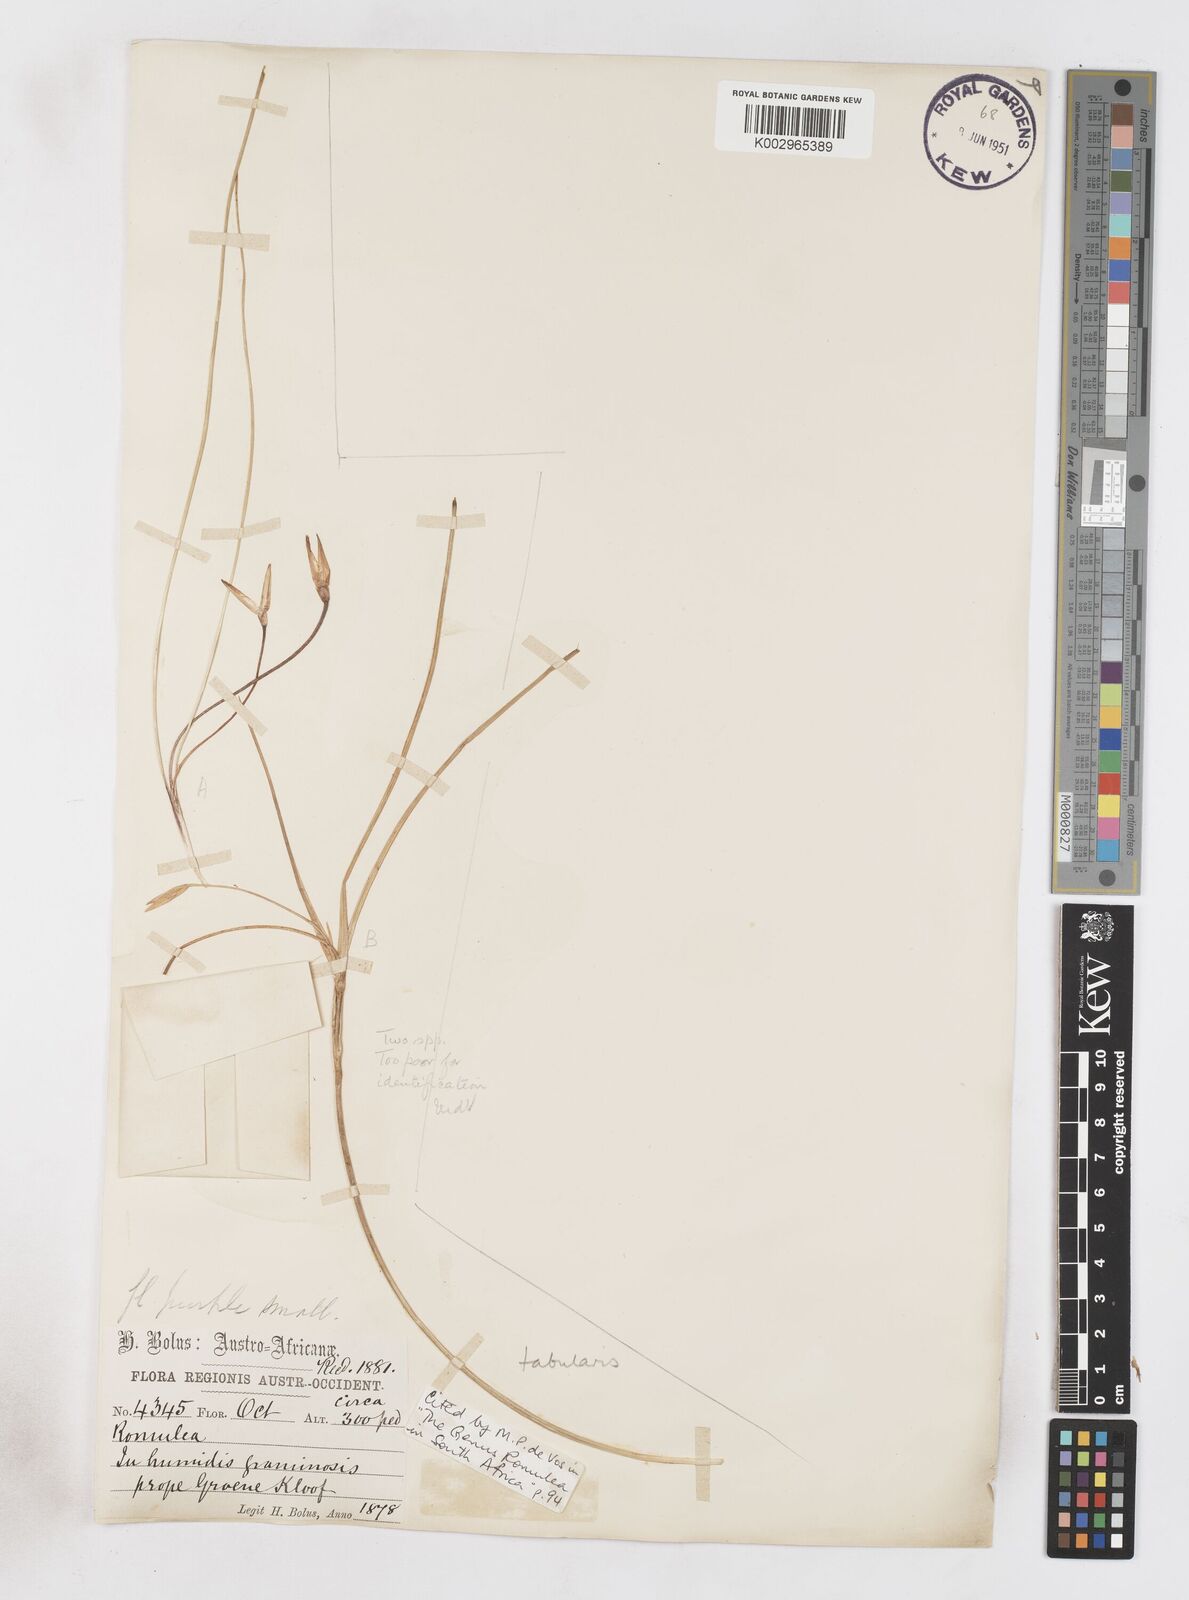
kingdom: Plantae
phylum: Tracheophyta
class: Liliopsida
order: Asparagales
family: Iridaceae
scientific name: Iridaceae
